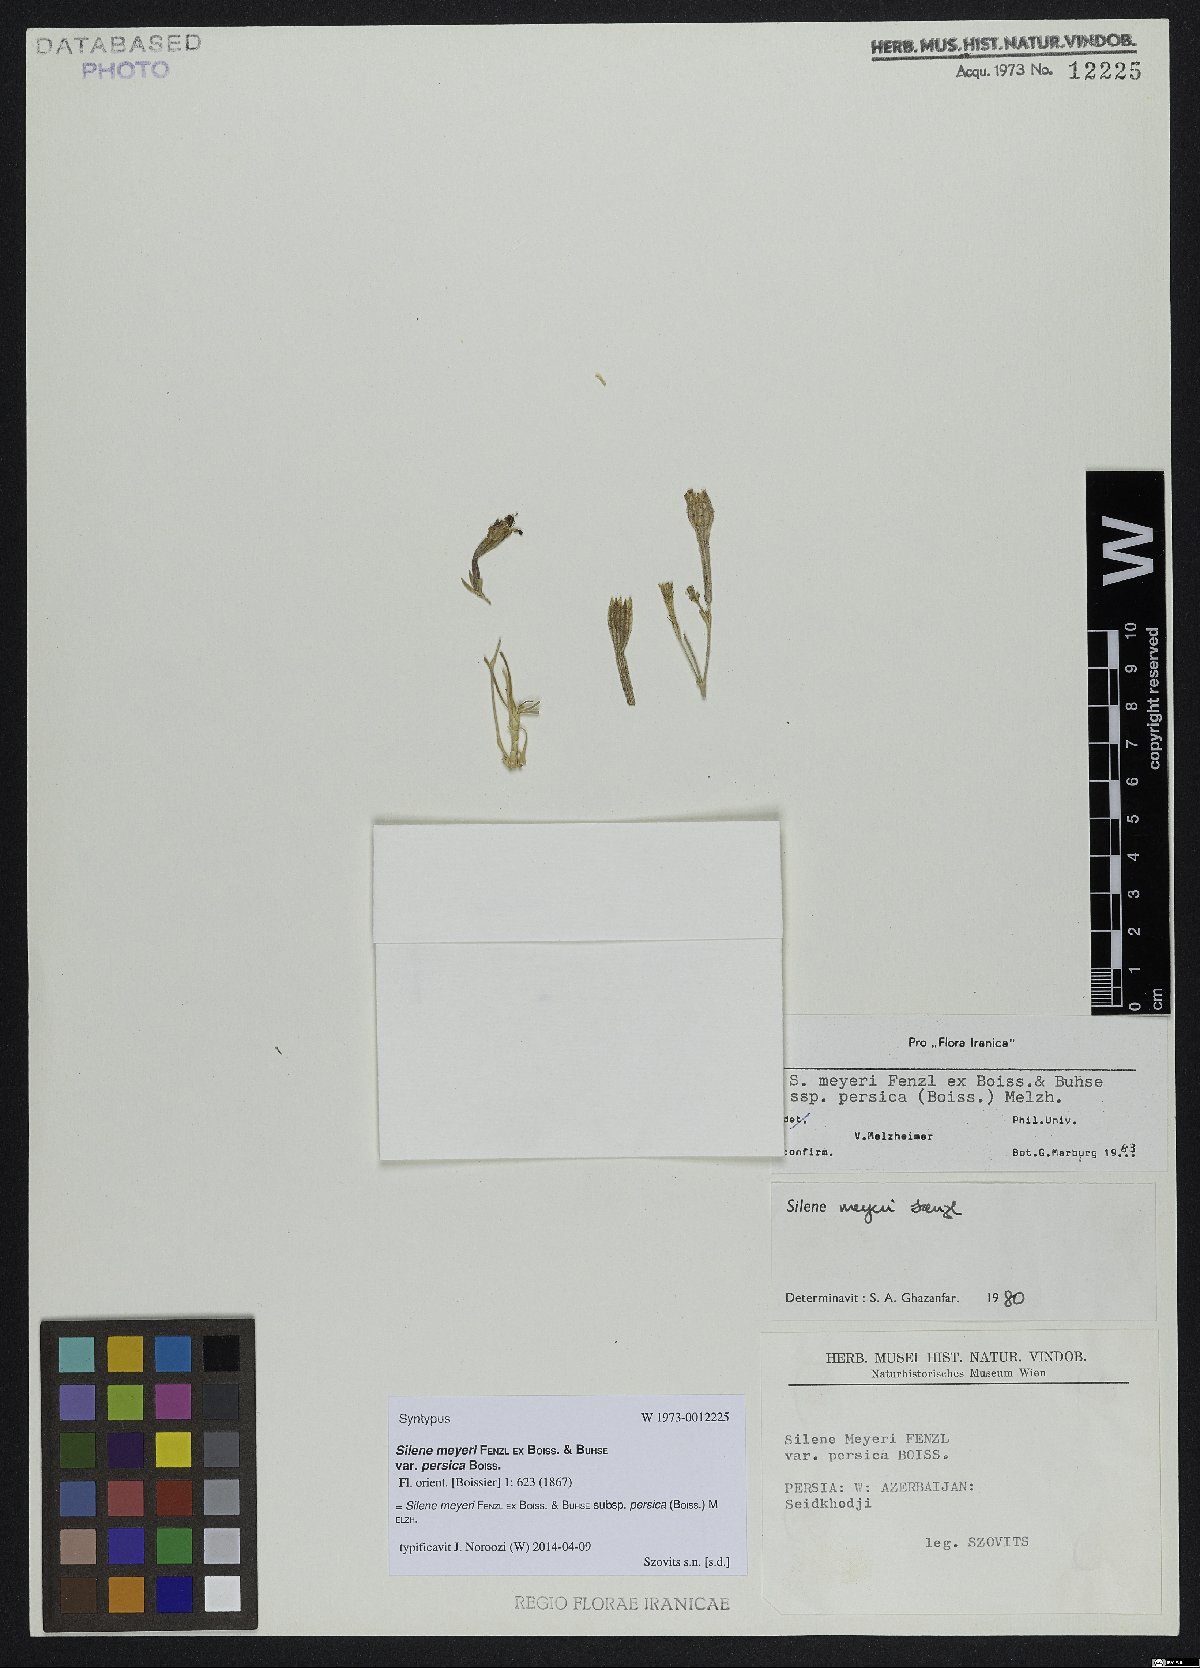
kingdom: Plantae
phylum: Tracheophyta
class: Magnoliopsida
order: Caryophyllales
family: Caryophyllaceae
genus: Silene
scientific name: Silene meyeri
